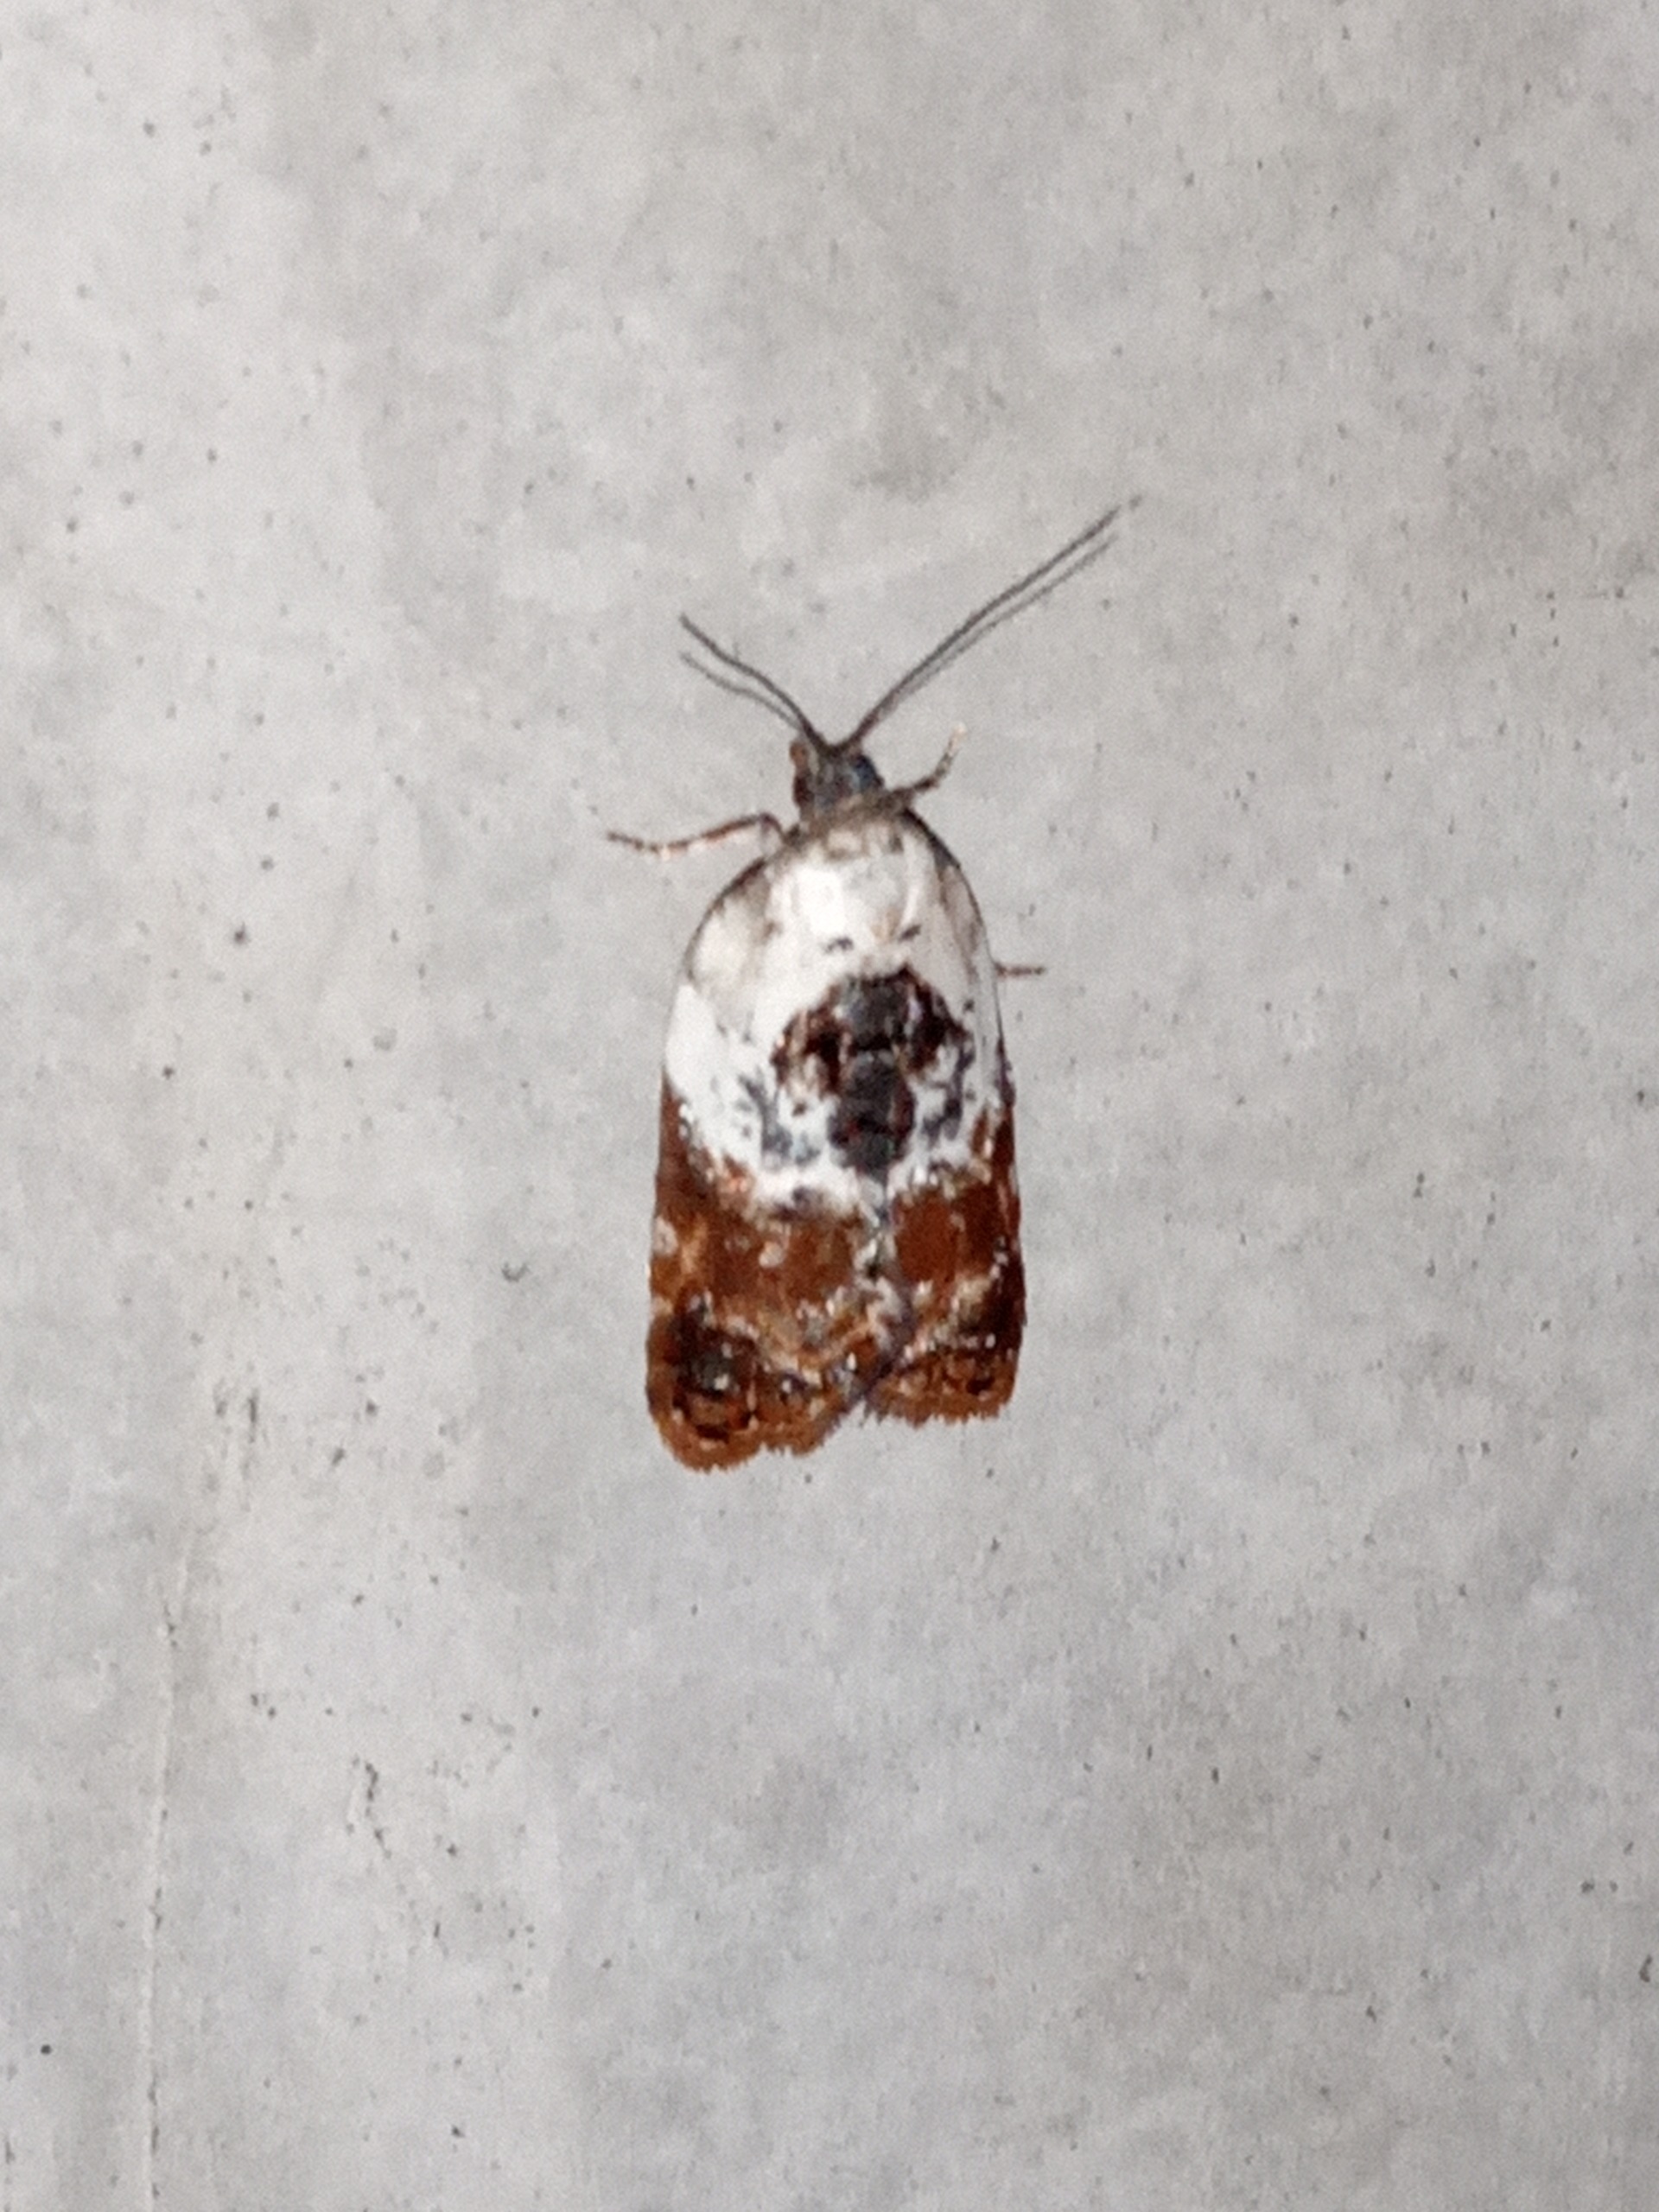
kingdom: Animalia
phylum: Arthropoda
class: Insecta
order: Lepidoptera
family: Tortricidae
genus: Acleris
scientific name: Acleris variegana
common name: Hvidbroget rosenvikler
